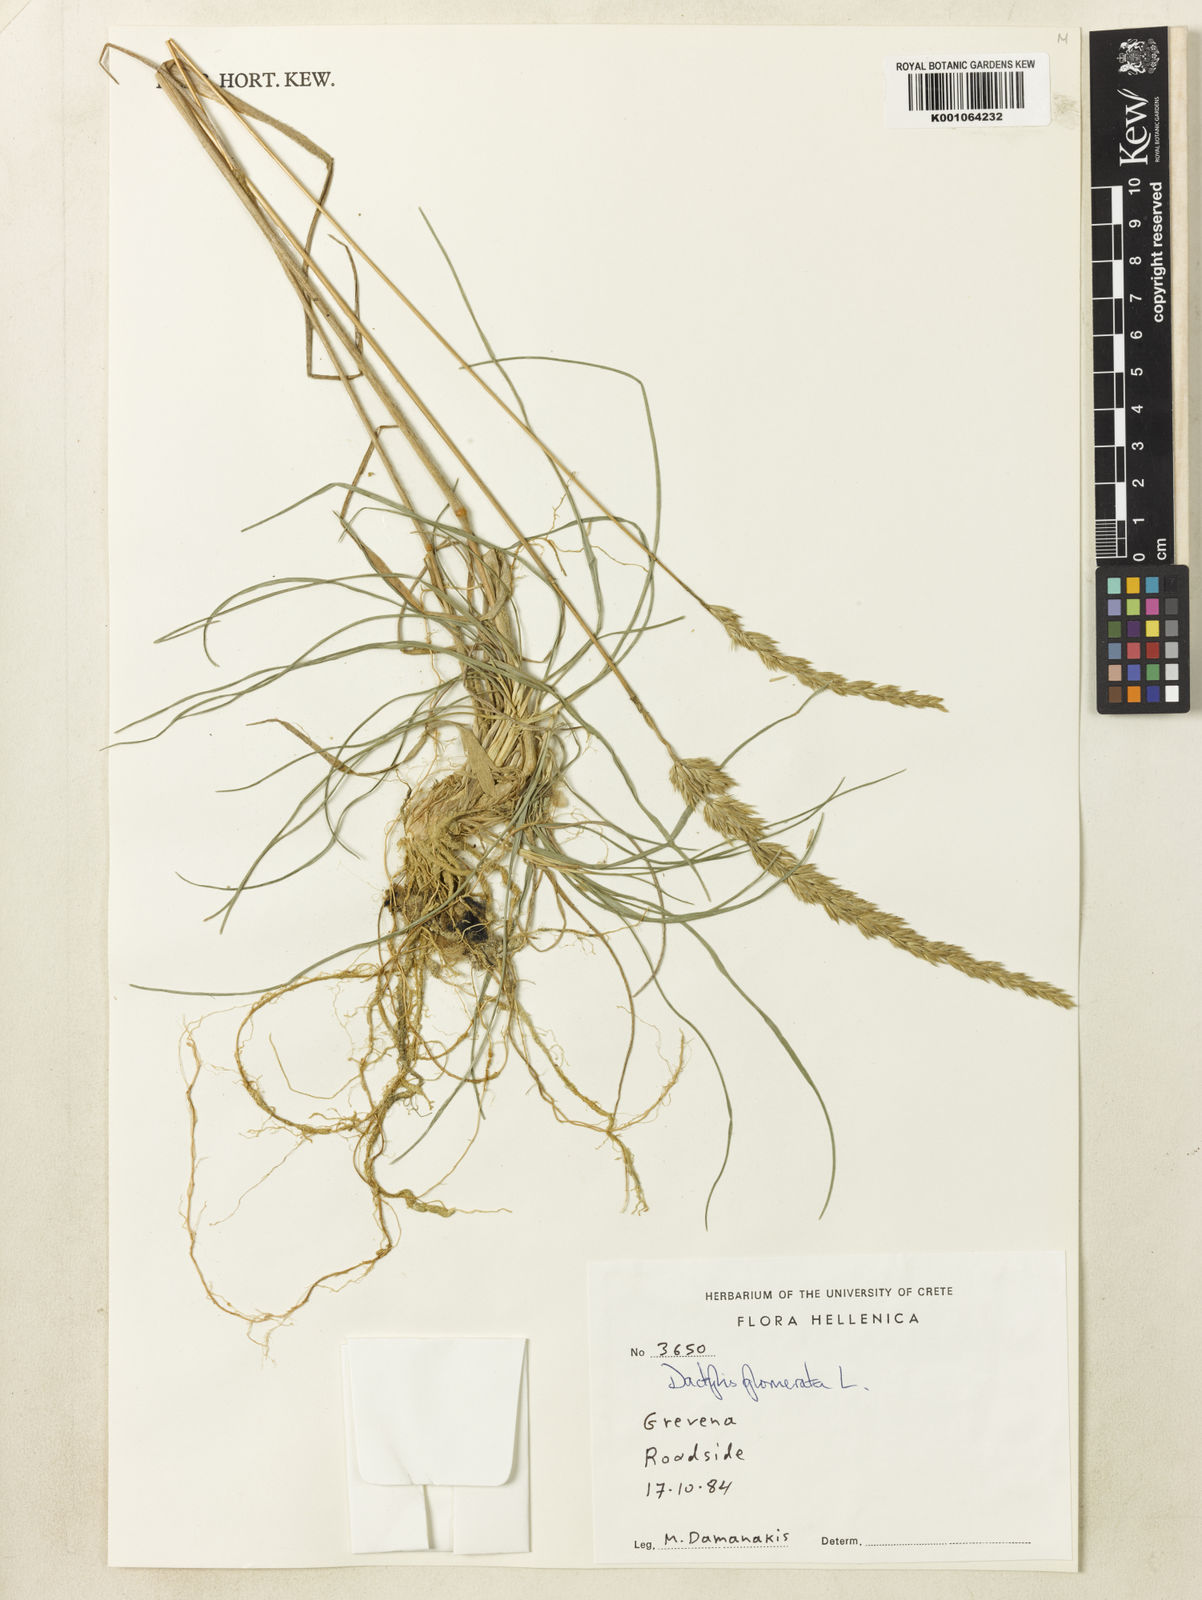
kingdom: Plantae
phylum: Tracheophyta
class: Liliopsida
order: Poales
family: Poaceae
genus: Dactylis
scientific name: Dactylis glomerata
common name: Orchardgrass
